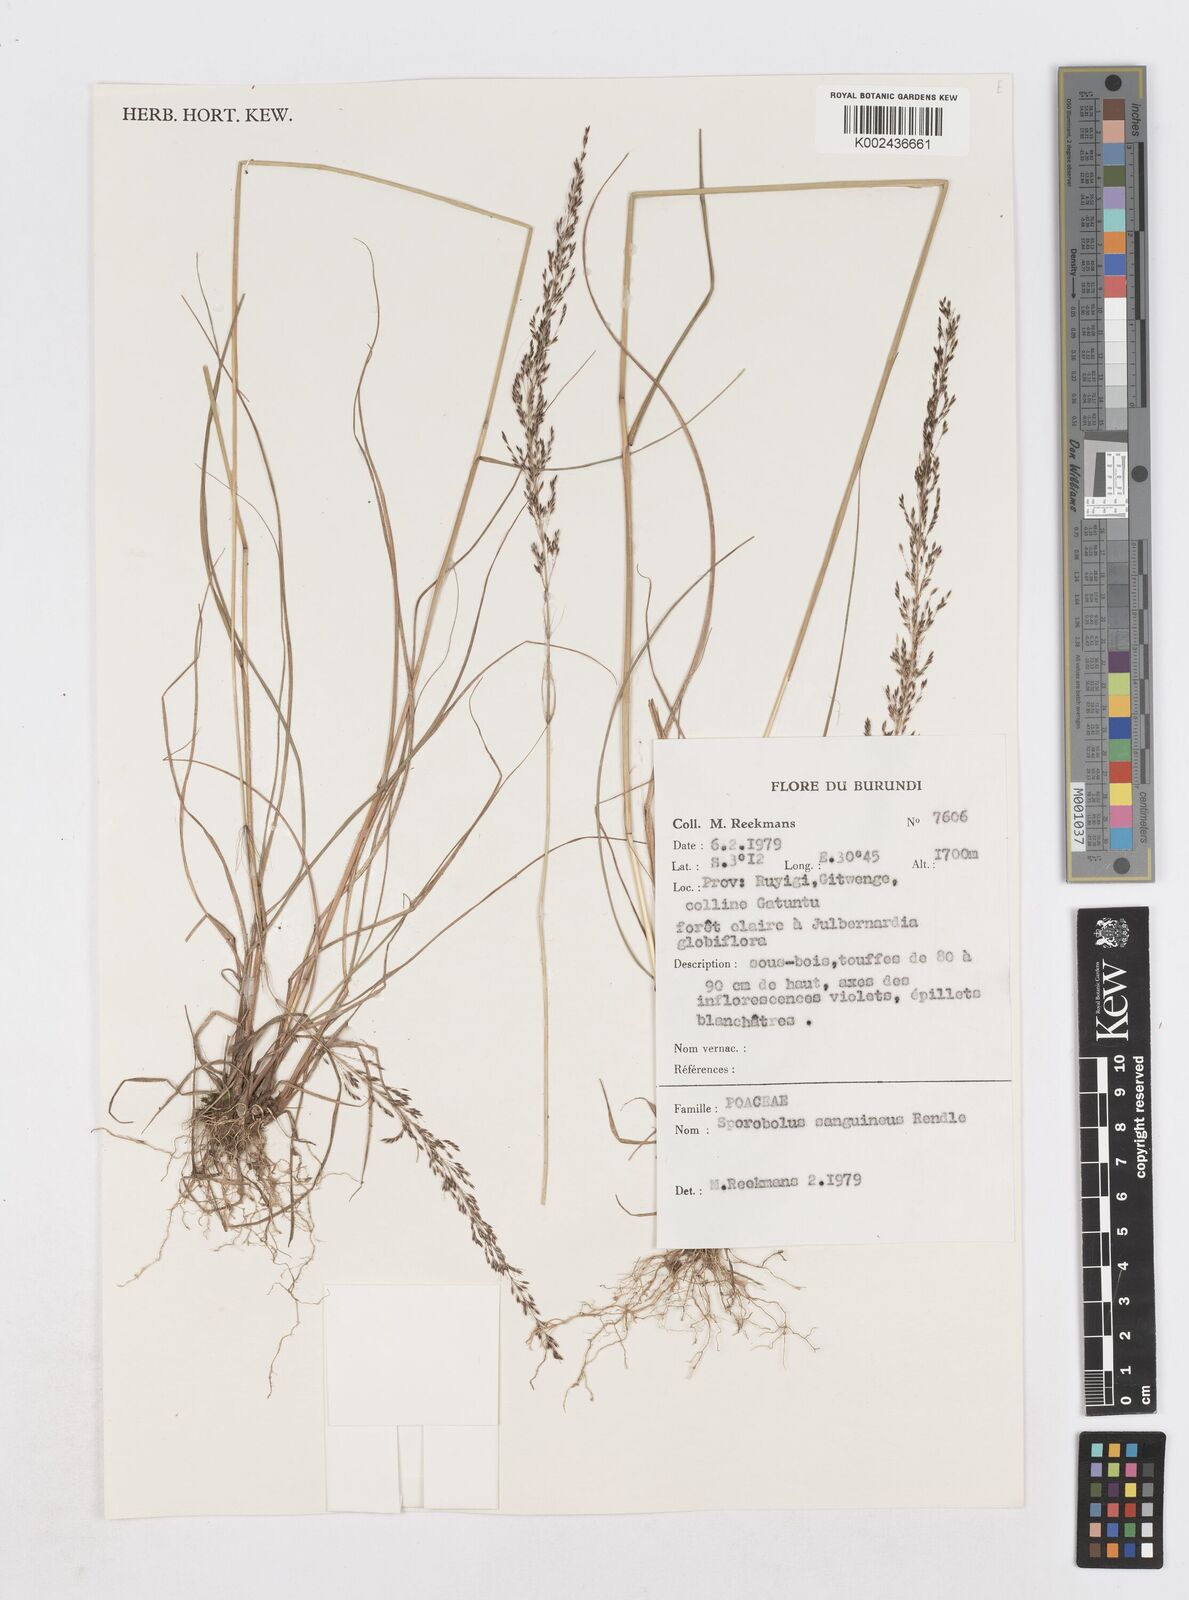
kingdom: Plantae
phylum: Tracheophyta
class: Liliopsida
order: Poales
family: Poaceae
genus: Sporobolus
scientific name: Sporobolus sanguineus
